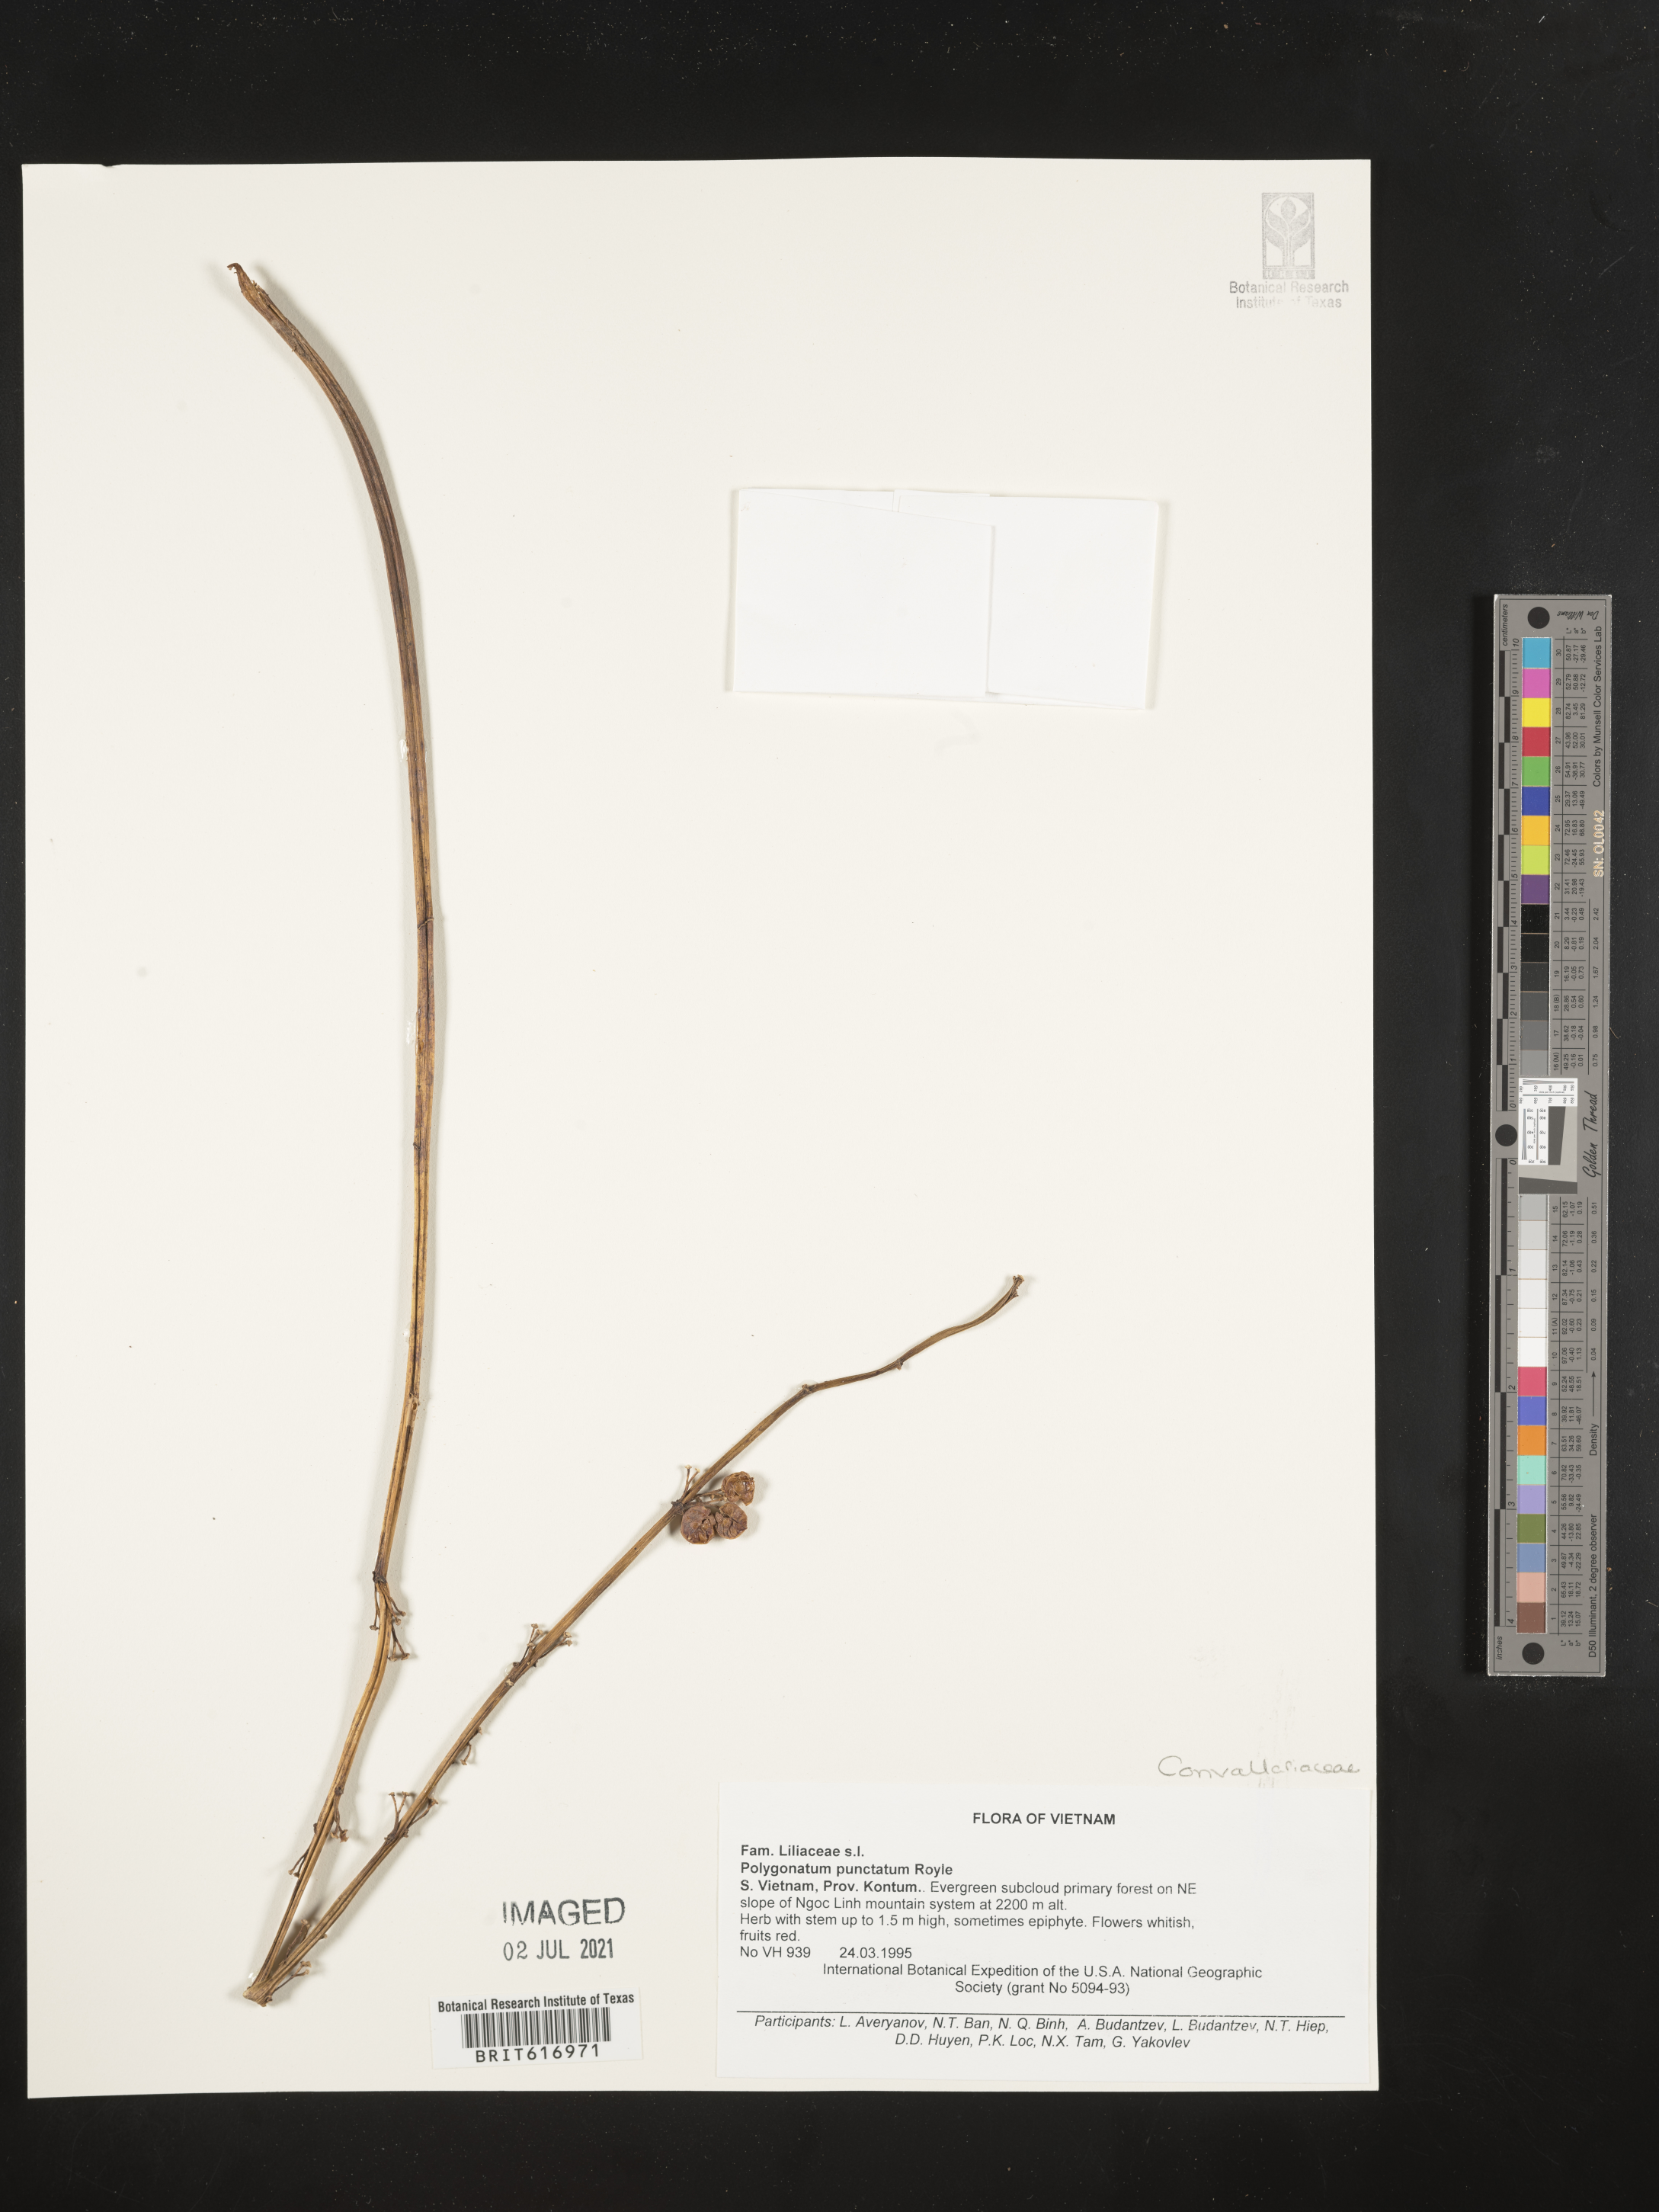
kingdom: Plantae
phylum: Tracheophyta
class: Liliopsida
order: Asparagales
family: Asparagaceae
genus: Polygonatum
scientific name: Polygonatum punctatum
